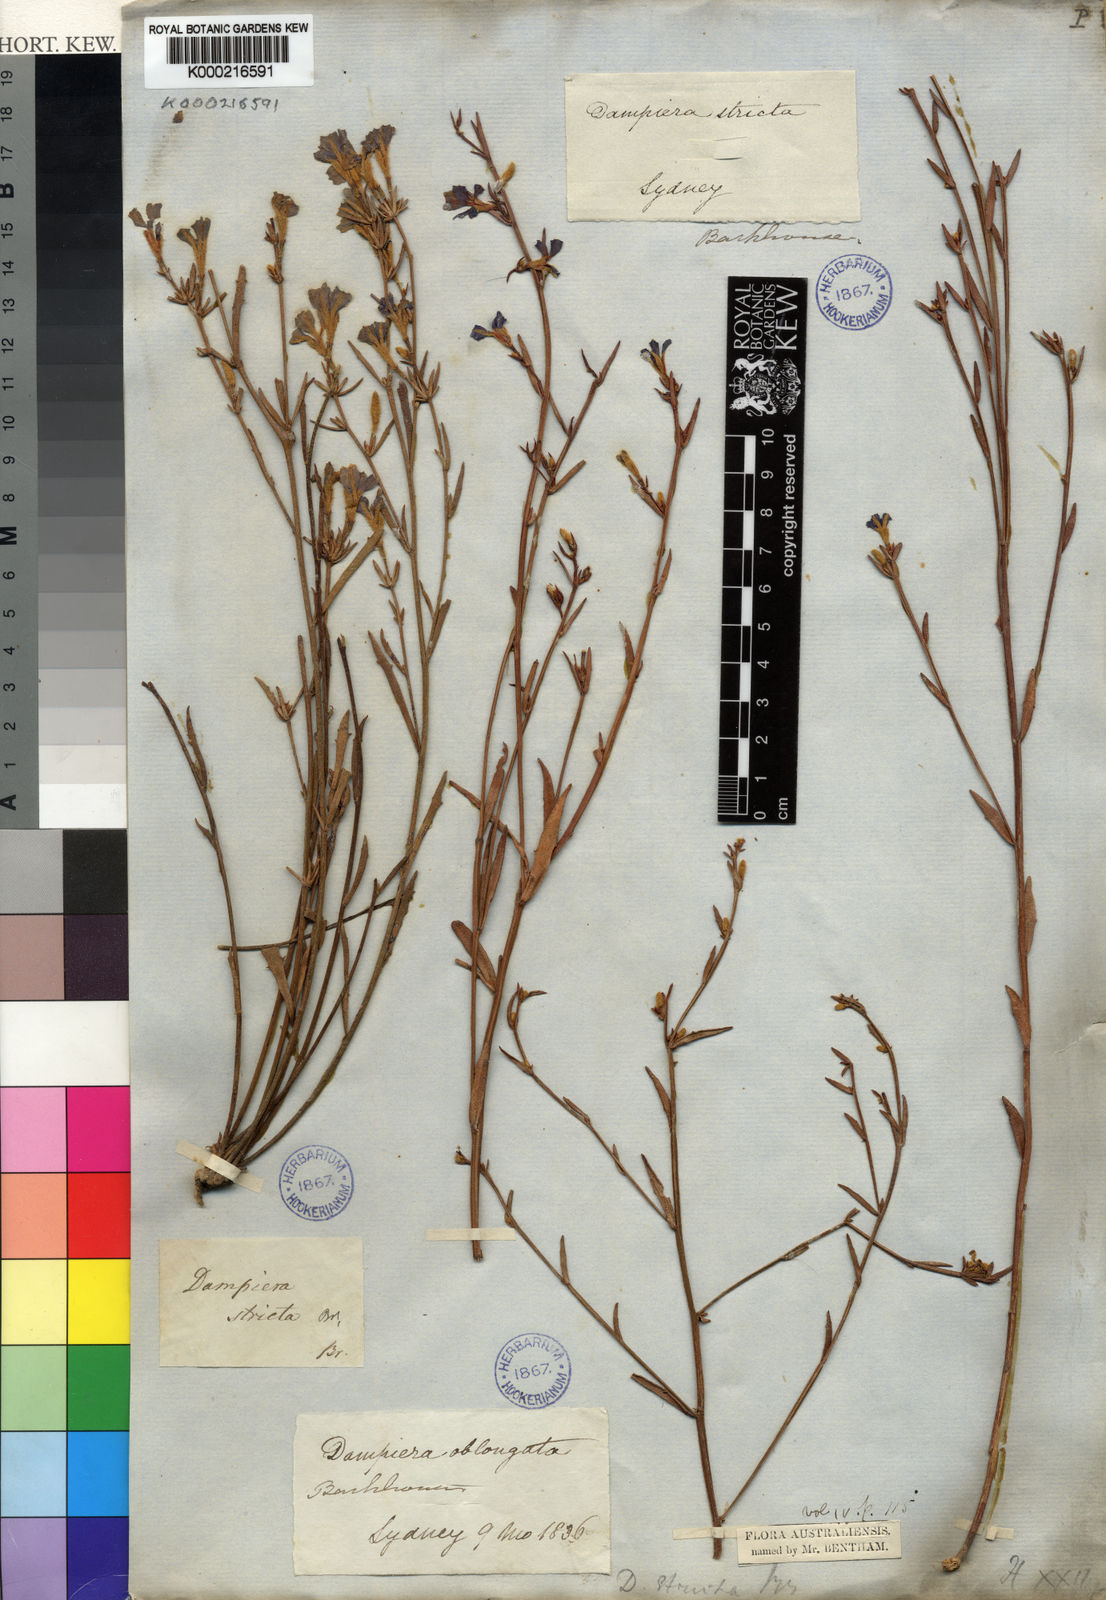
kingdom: Plantae
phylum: Tracheophyta
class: Magnoliopsida
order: Asterales
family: Goodeniaceae
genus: Dampiera
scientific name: Dampiera stricta
